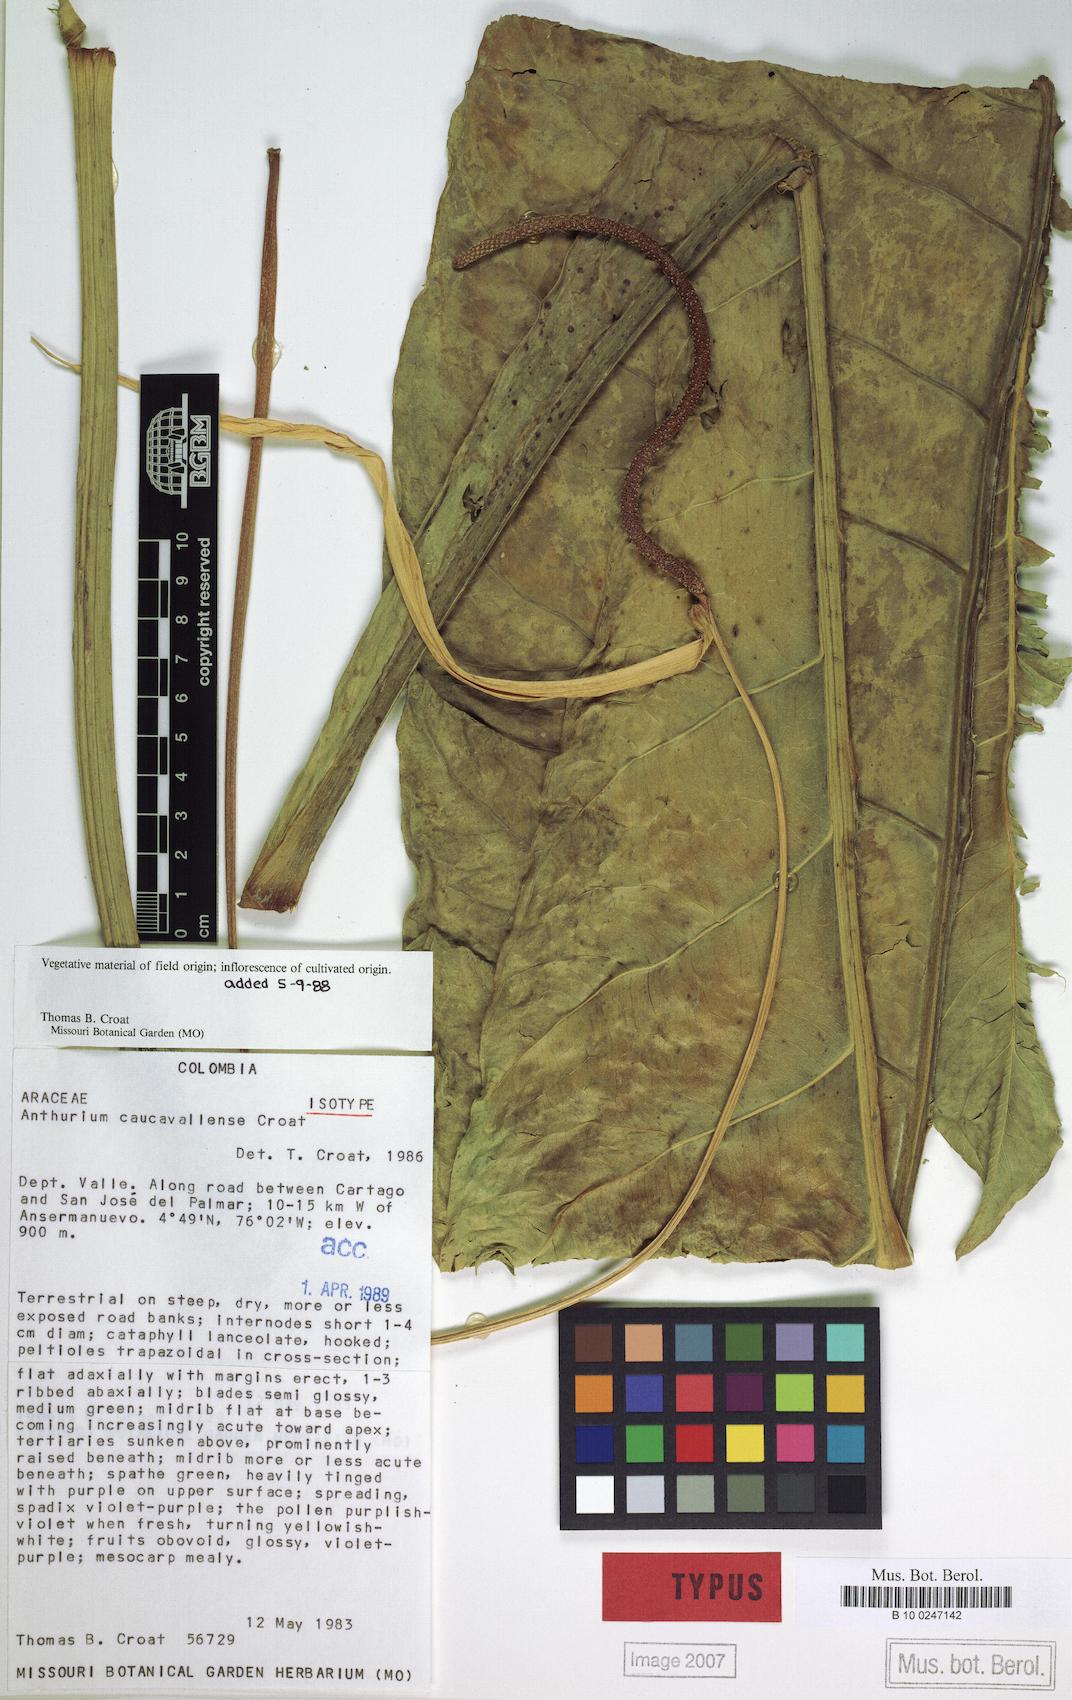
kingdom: Plantae
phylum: Tracheophyta
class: Liliopsida
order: Alismatales
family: Araceae
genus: Anthurium
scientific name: Anthurium caucavallense
